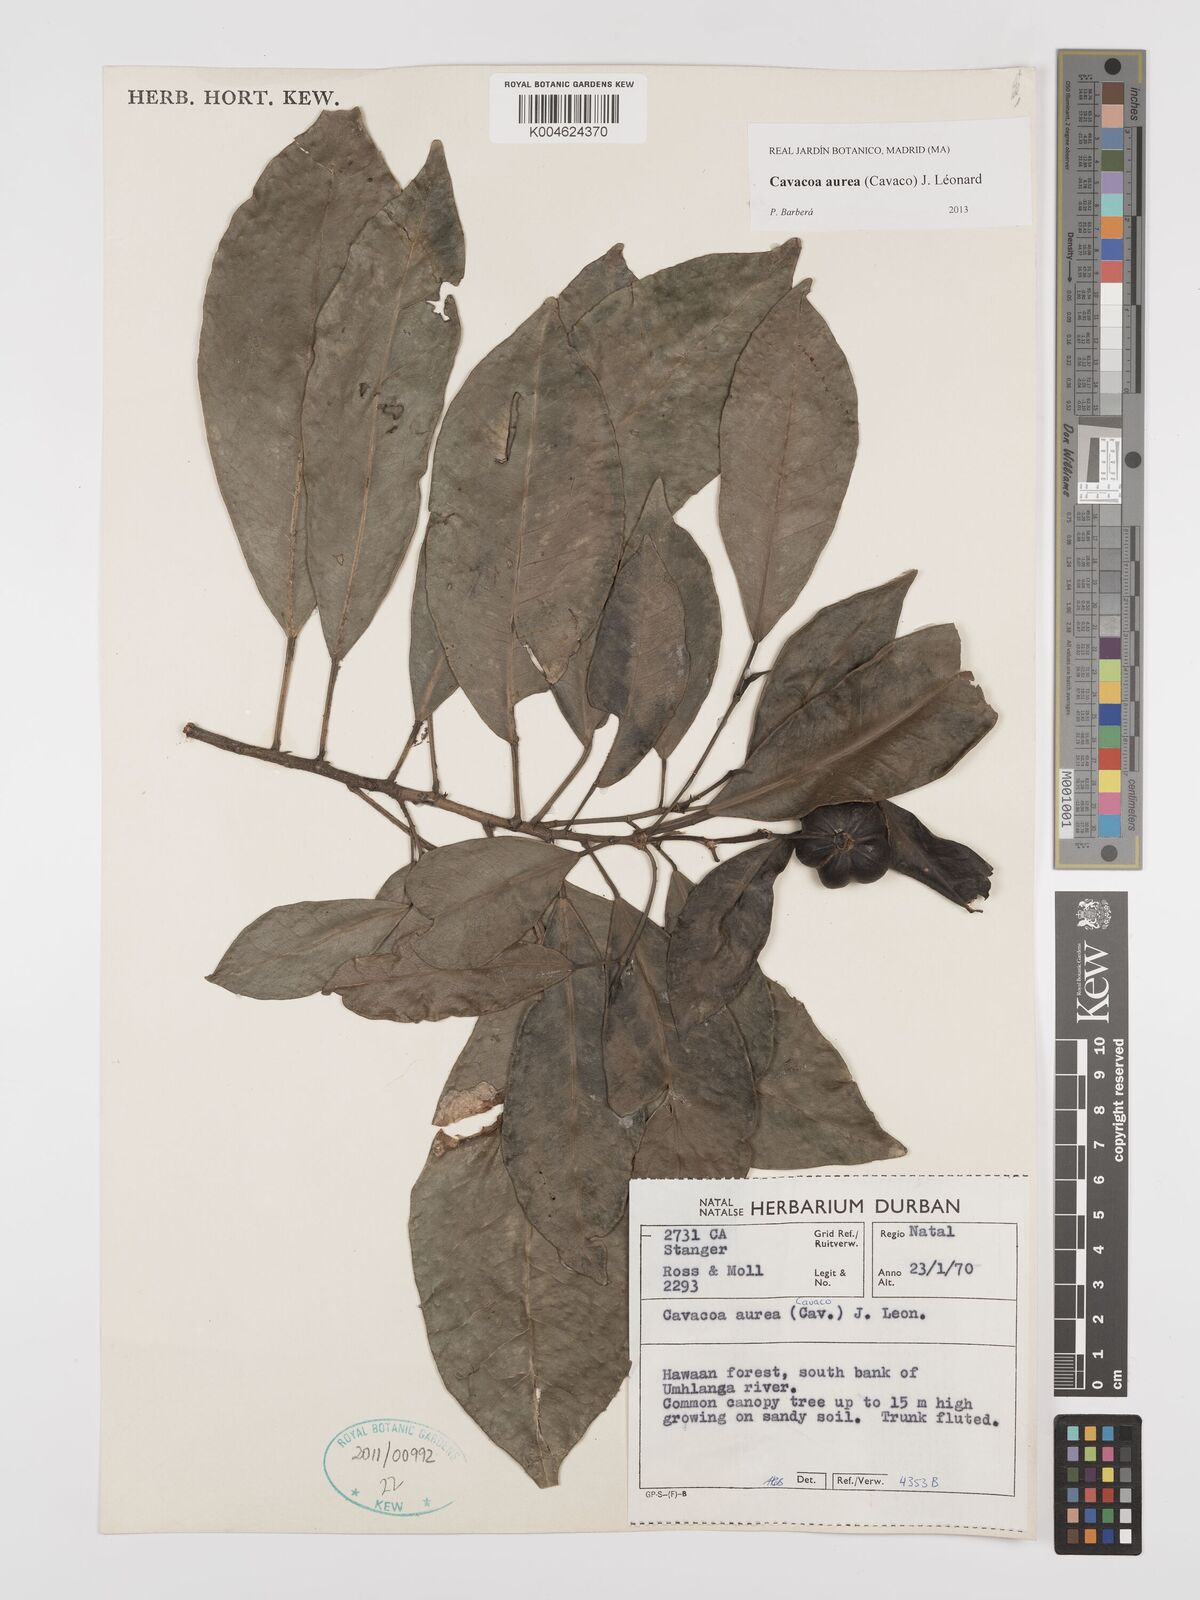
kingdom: Plantae
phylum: Tracheophyta
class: Magnoliopsida
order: Malpighiales
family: Euphorbiaceae
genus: Cavacoa
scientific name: Cavacoa aurea
